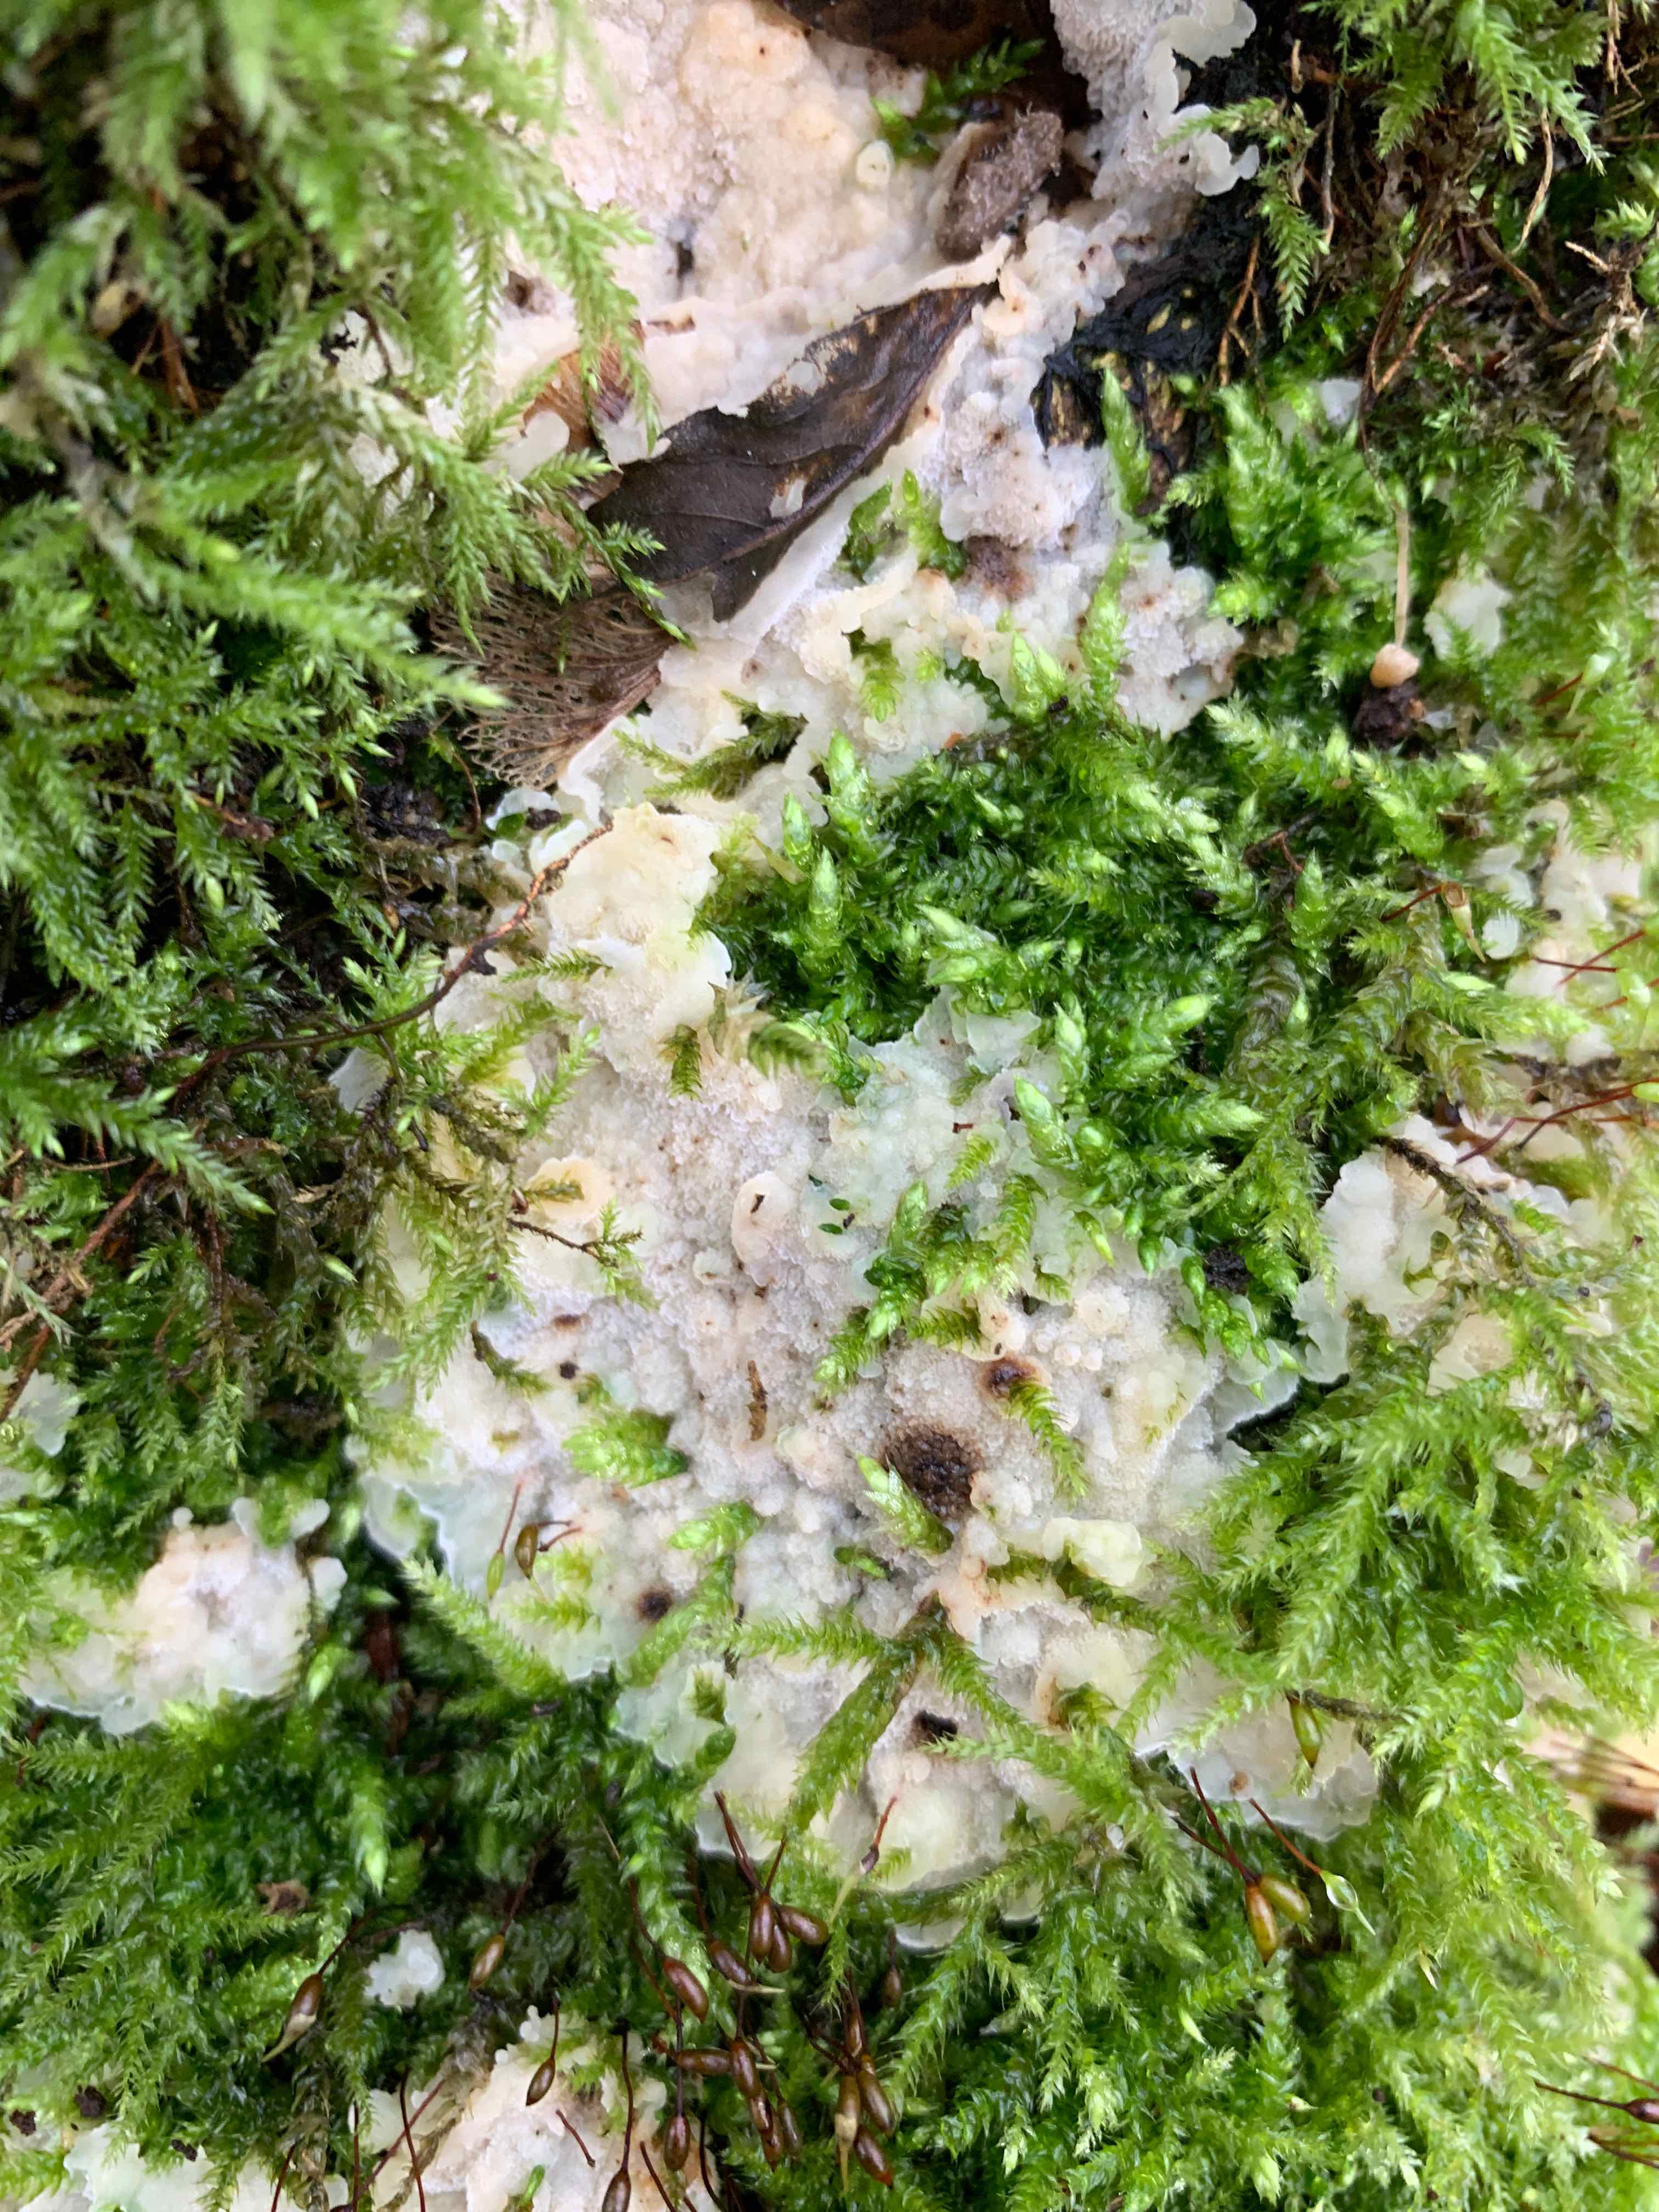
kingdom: Fungi
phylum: Basidiomycota
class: Agaricomycetes
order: Polyporales
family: Meruliaceae
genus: Physisporinus
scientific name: Physisporinus vitreus
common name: mastesvamp
